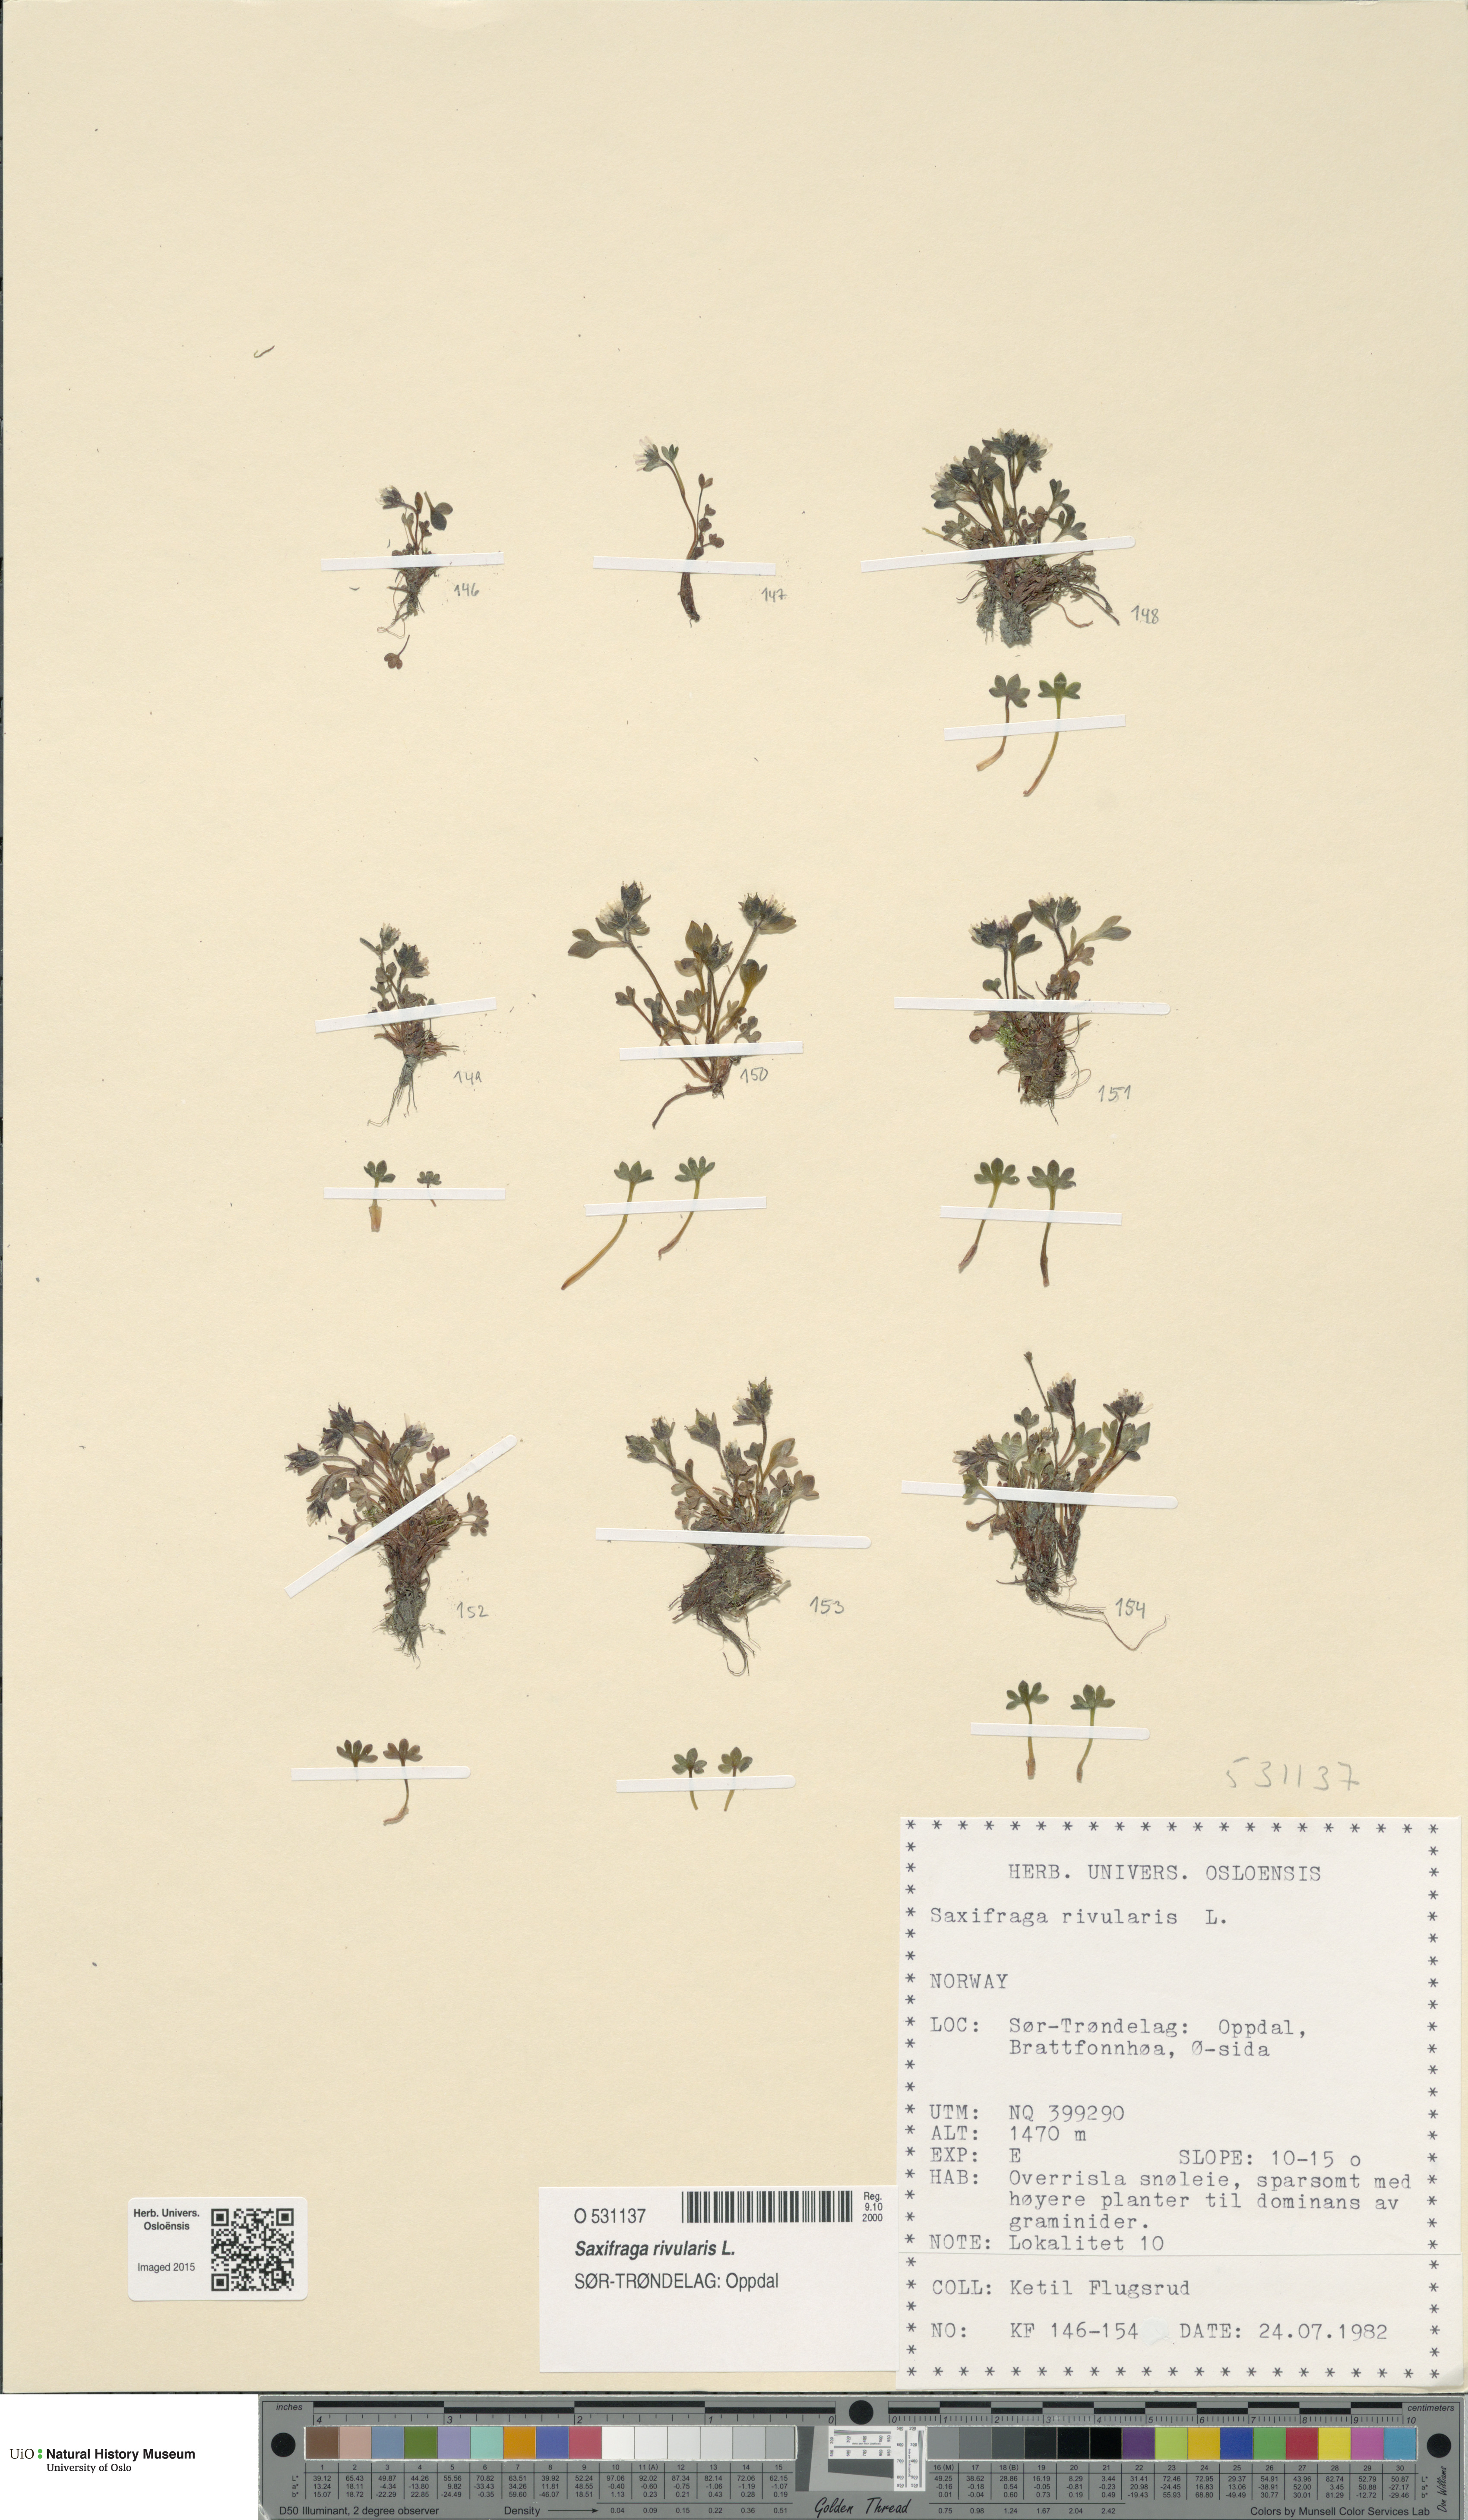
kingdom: Plantae
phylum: Tracheophyta
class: Magnoliopsida
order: Saxifragales
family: Saxifragaceae
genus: Saxifraga
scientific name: Saxifraga rivularis
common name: Highland saxifrage
